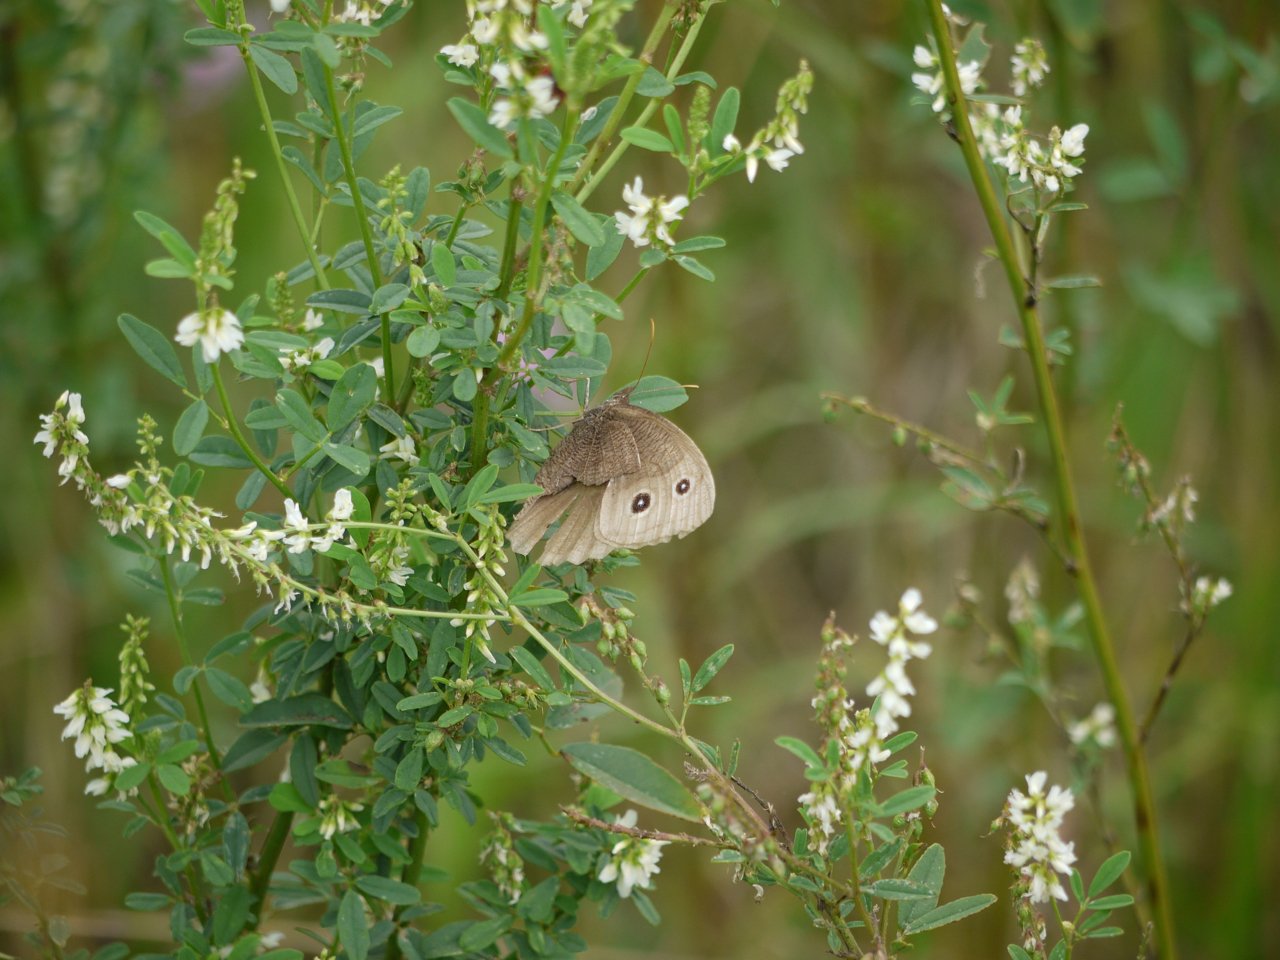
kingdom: Animalia
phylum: Arthropoda
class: Insecta
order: Lepidoptera
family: Nymphalidae
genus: Cercyonis
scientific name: Cercyonis pegala
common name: Common Wood-Nymph
